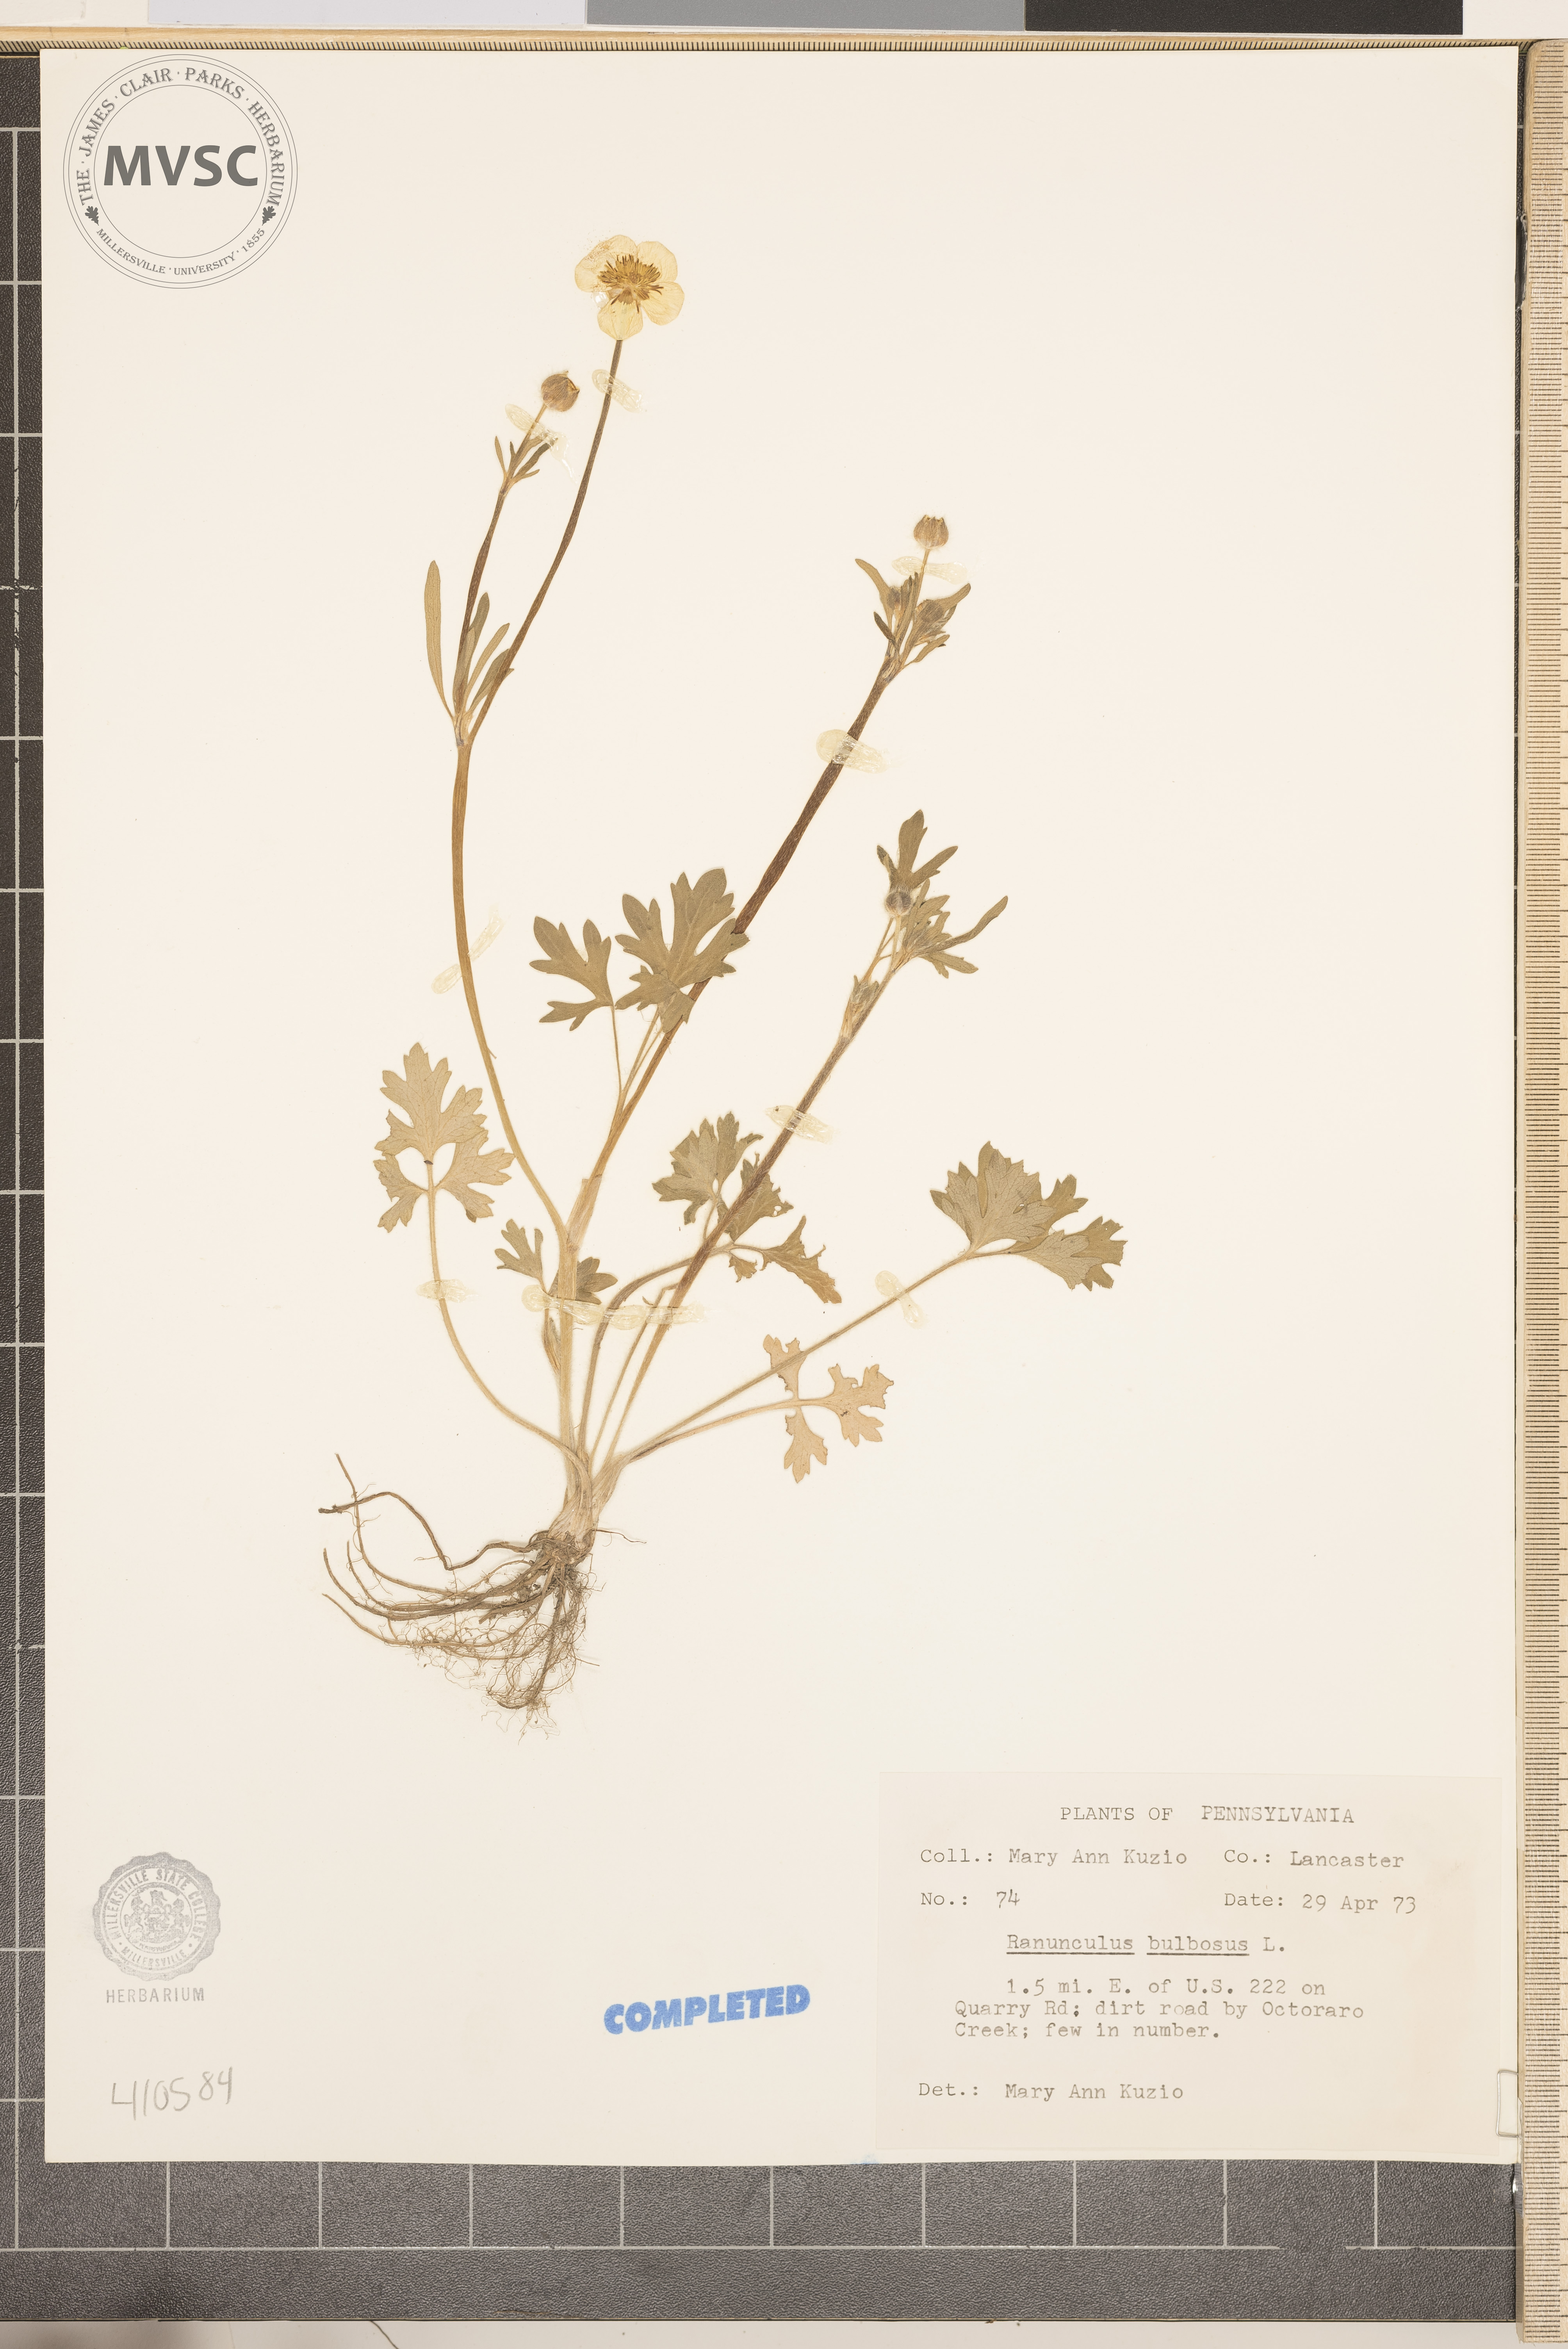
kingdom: Plantae
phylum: Tracheophyta
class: Magnoliopsida
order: Ranunculales
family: Ranunculaceae
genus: Ranunculus
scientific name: Ranunculus bulbosus
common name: Buttercup
